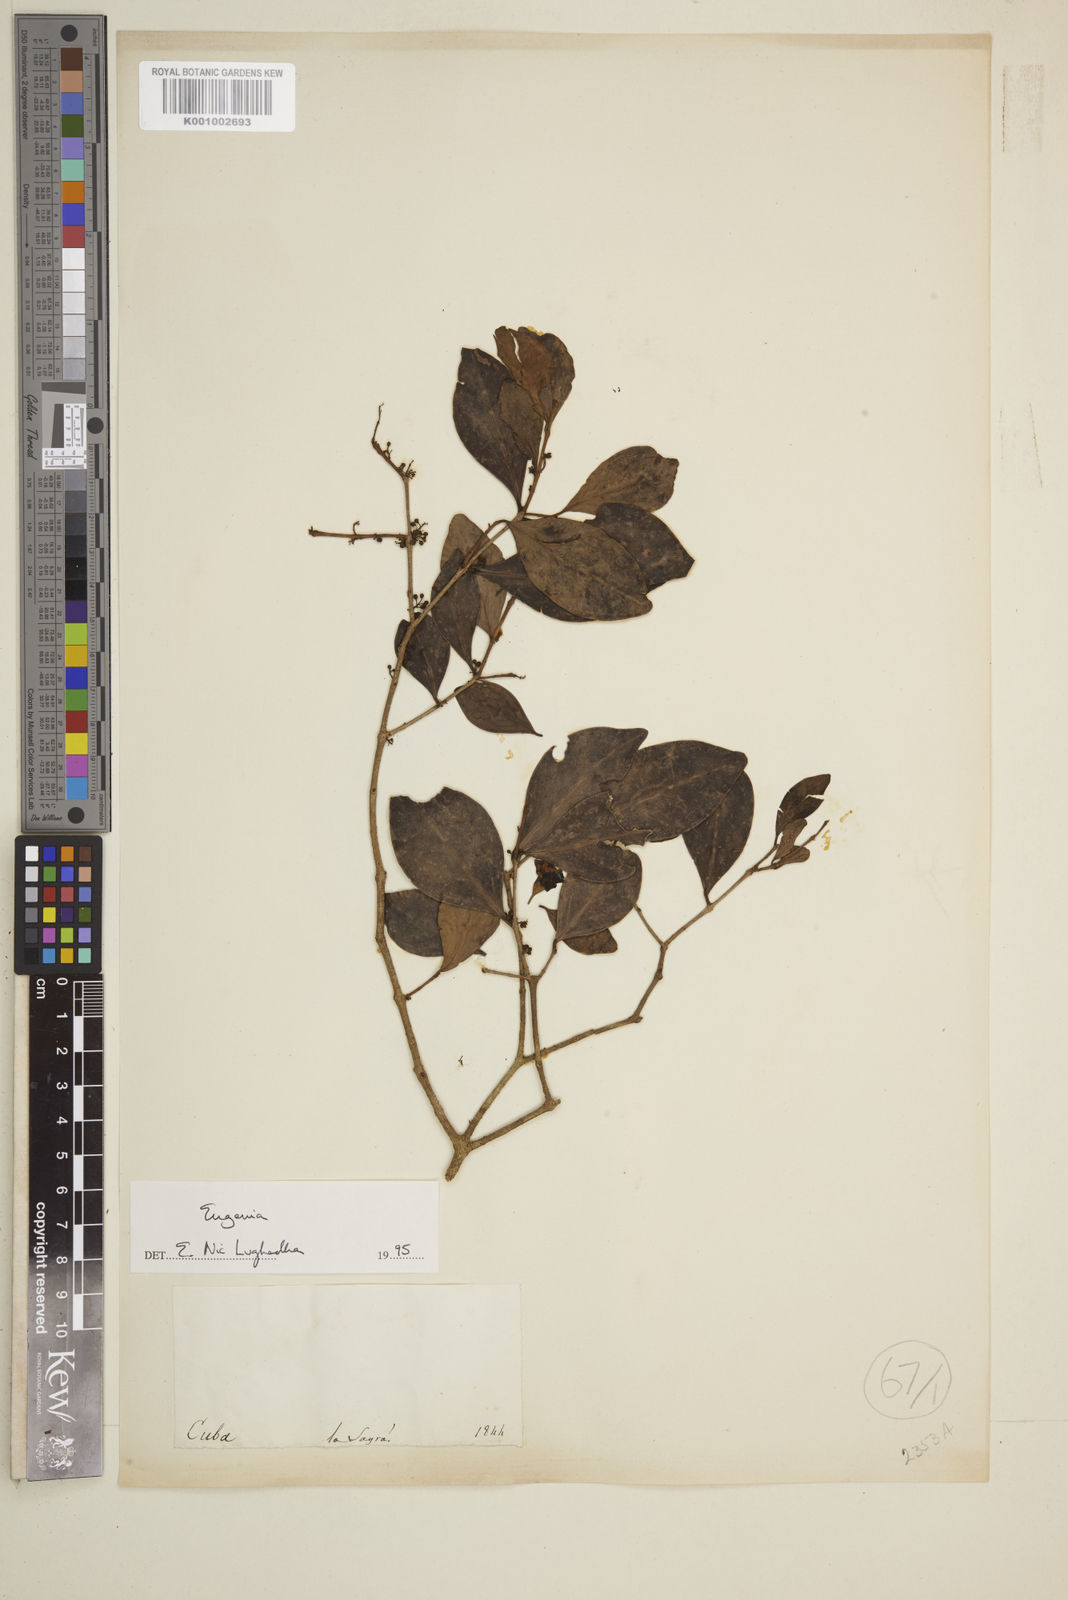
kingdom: Plantae
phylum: Tracheophyta
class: Magnoliopsida
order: Myrtales
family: Myrtaceae
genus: Eugenia
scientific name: Eugenia
